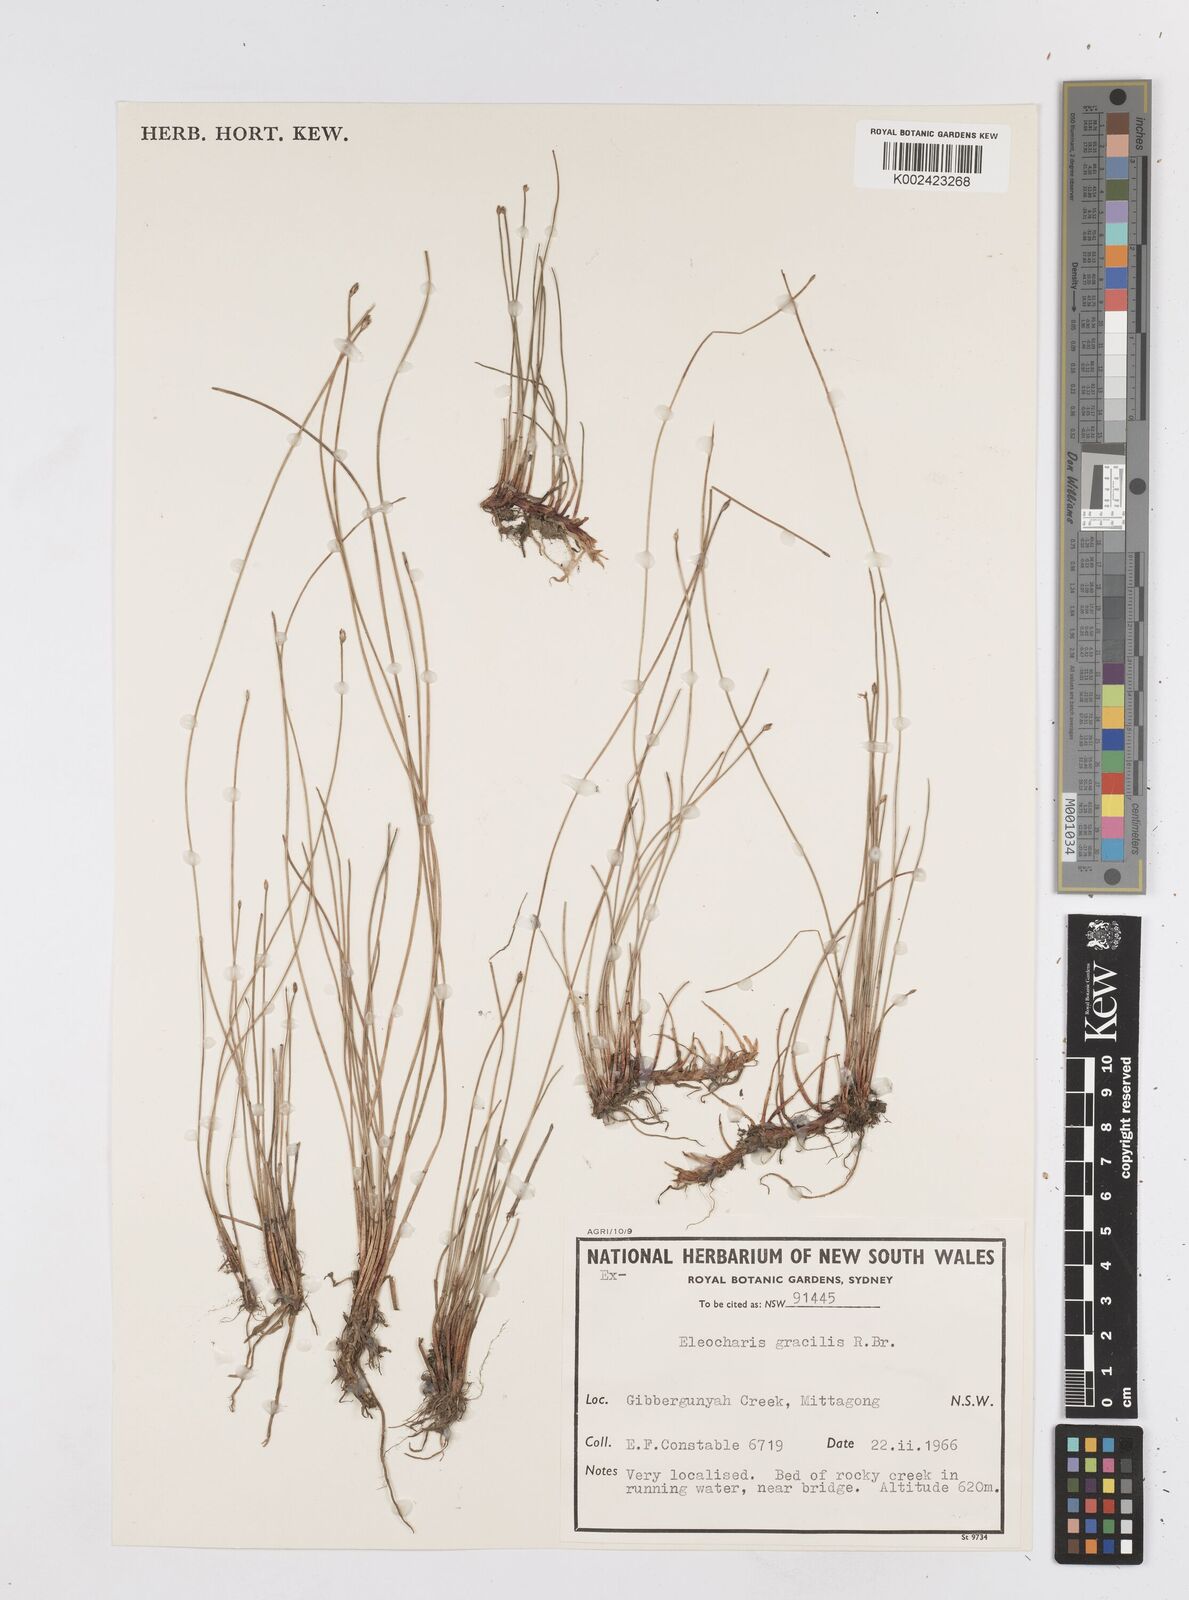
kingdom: Plantae
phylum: Tracheophyta
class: Liliopsida
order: Poales
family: Cyperaceae
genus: Eleocharis
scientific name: Eleocharis multicaulis
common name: Many-stalked spike-rush
